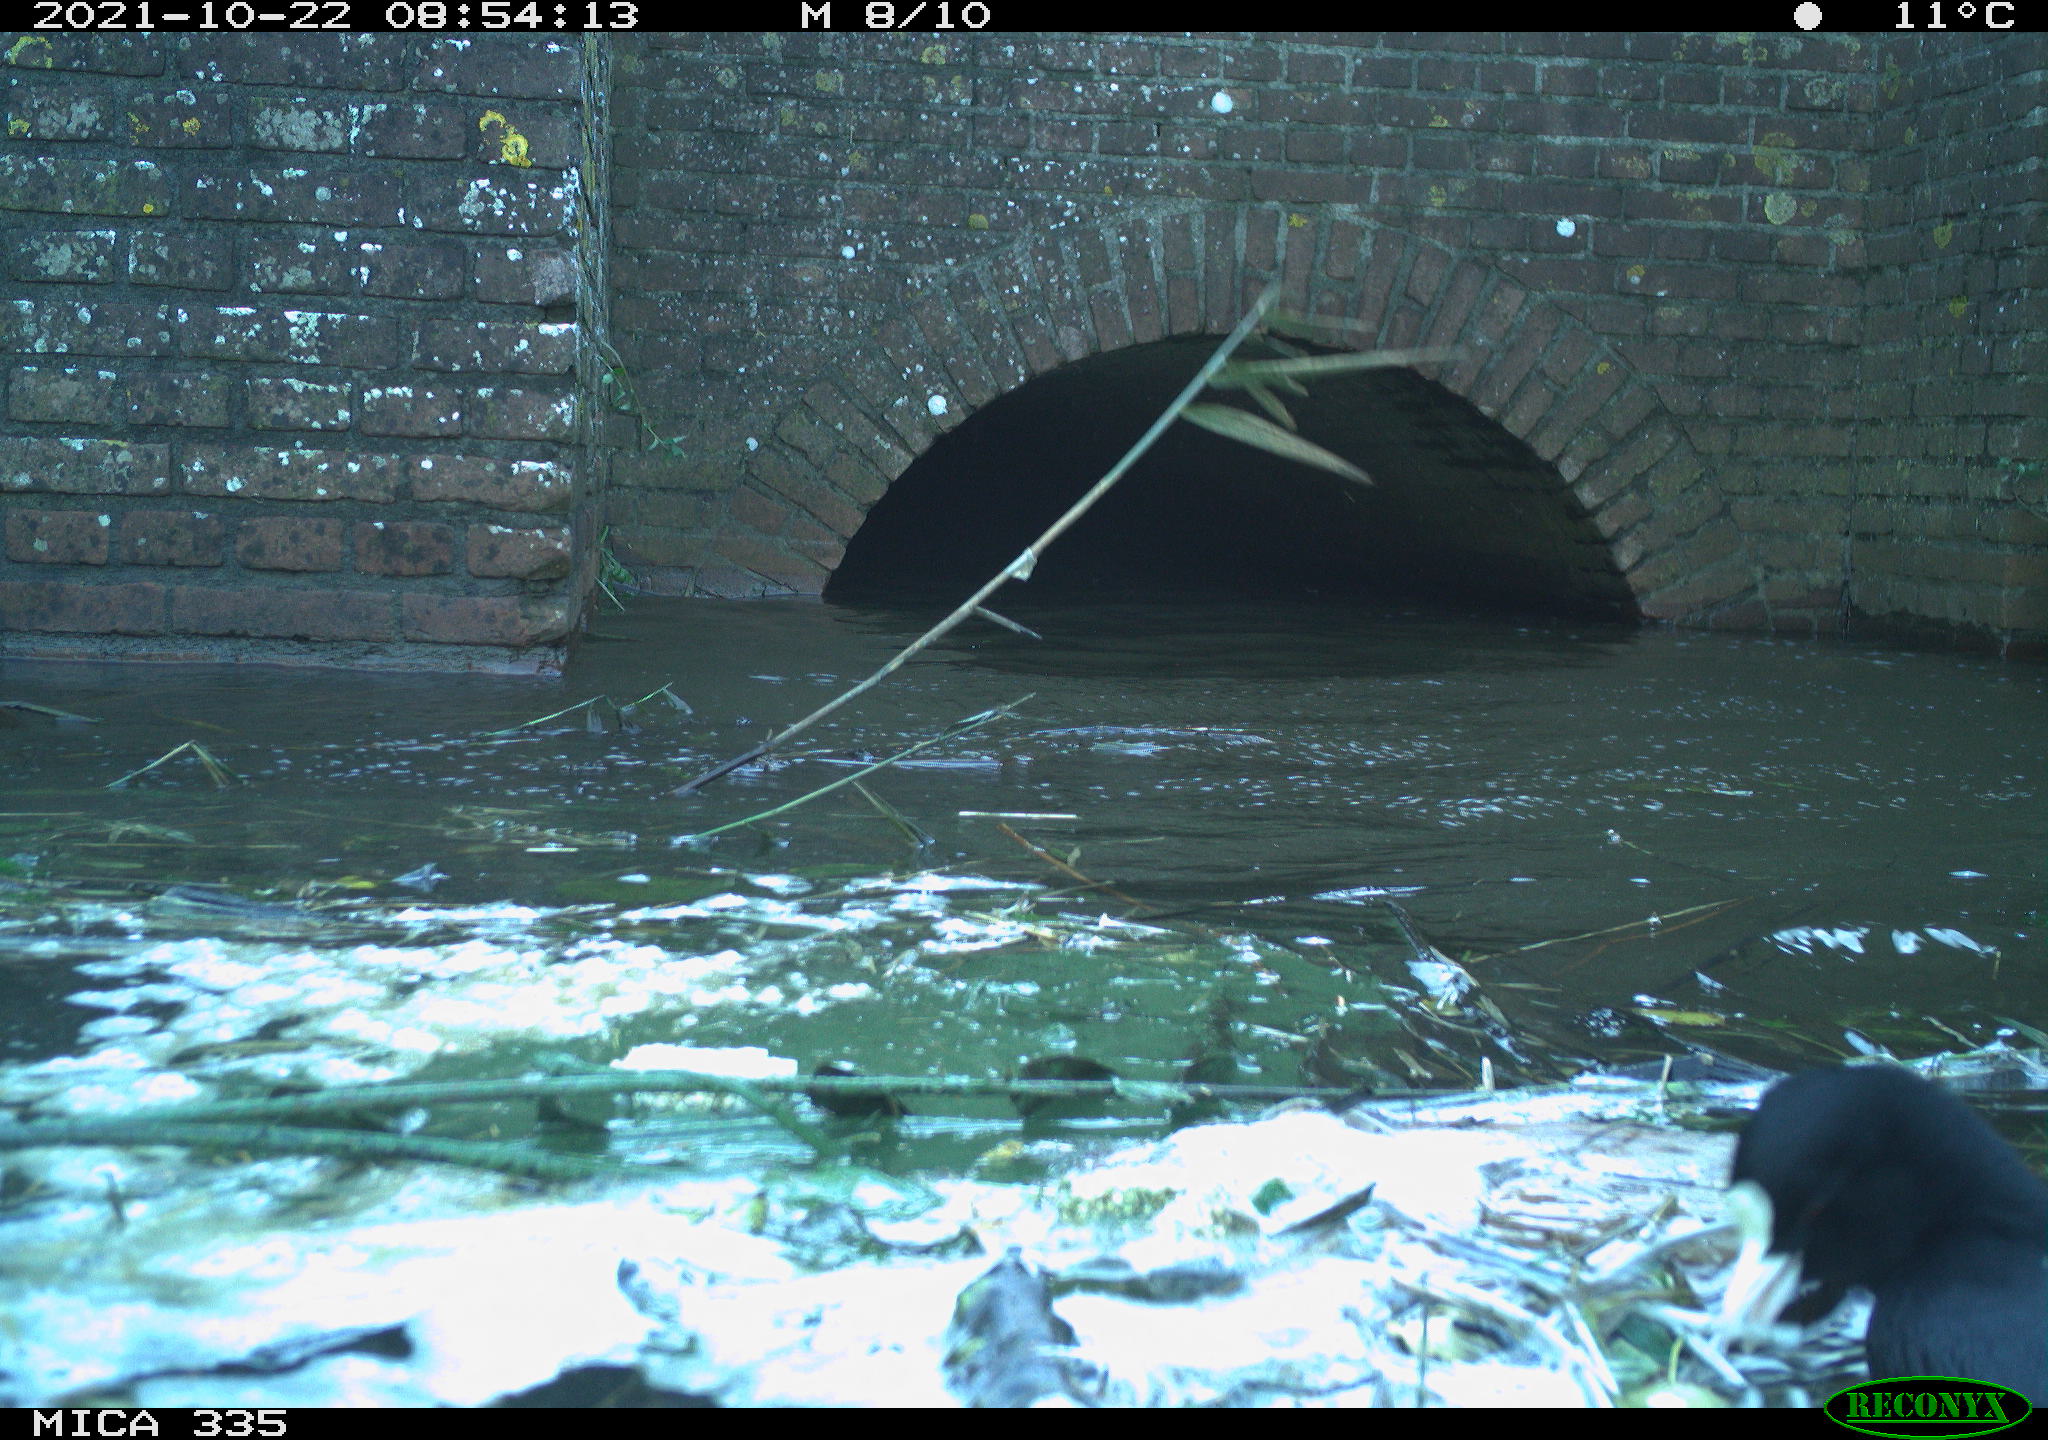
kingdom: Animalia
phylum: Chordata
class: Aves
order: Gruiformes
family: Rallidae
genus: Fulica
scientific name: Fulica atra
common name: Eurasian coot
